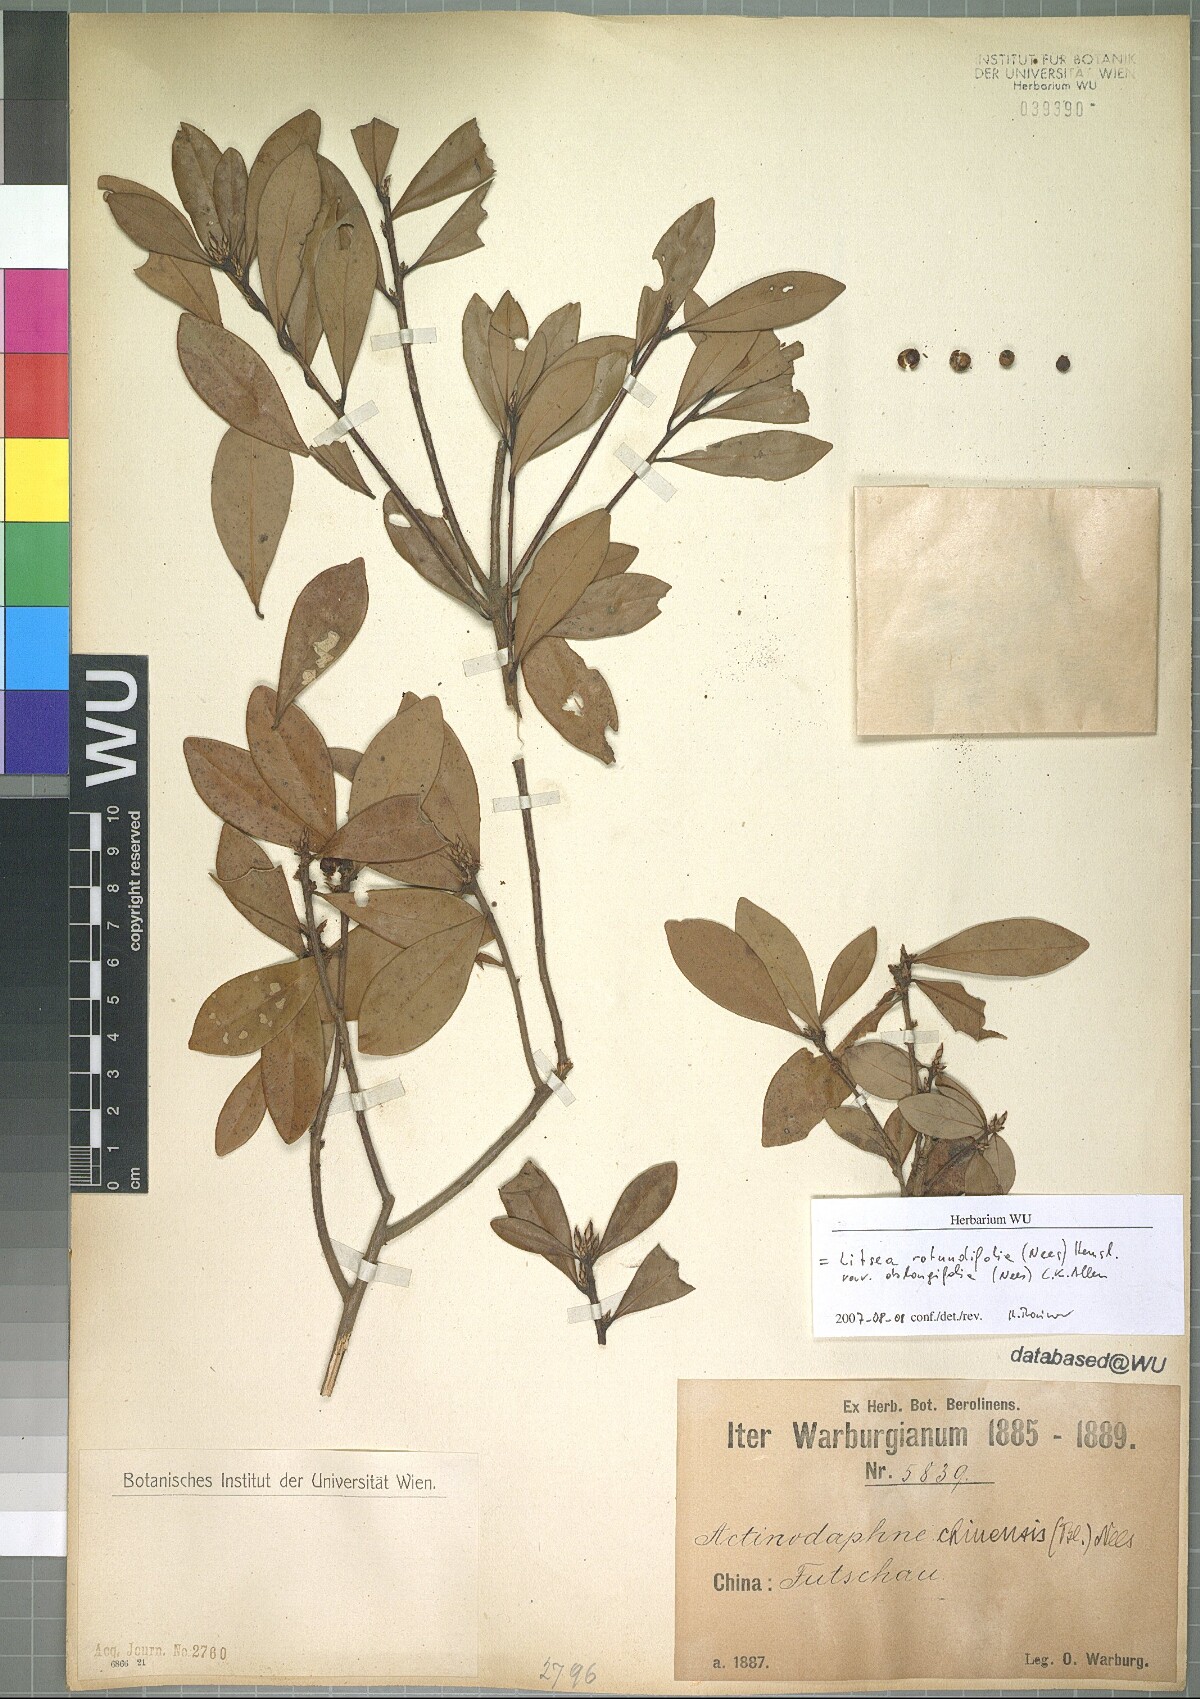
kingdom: Plantae
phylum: Tracheophyta
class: Magnoliopsida
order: Laurales
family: Lauraceae
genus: Litsea
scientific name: Litsea rotundifolia
